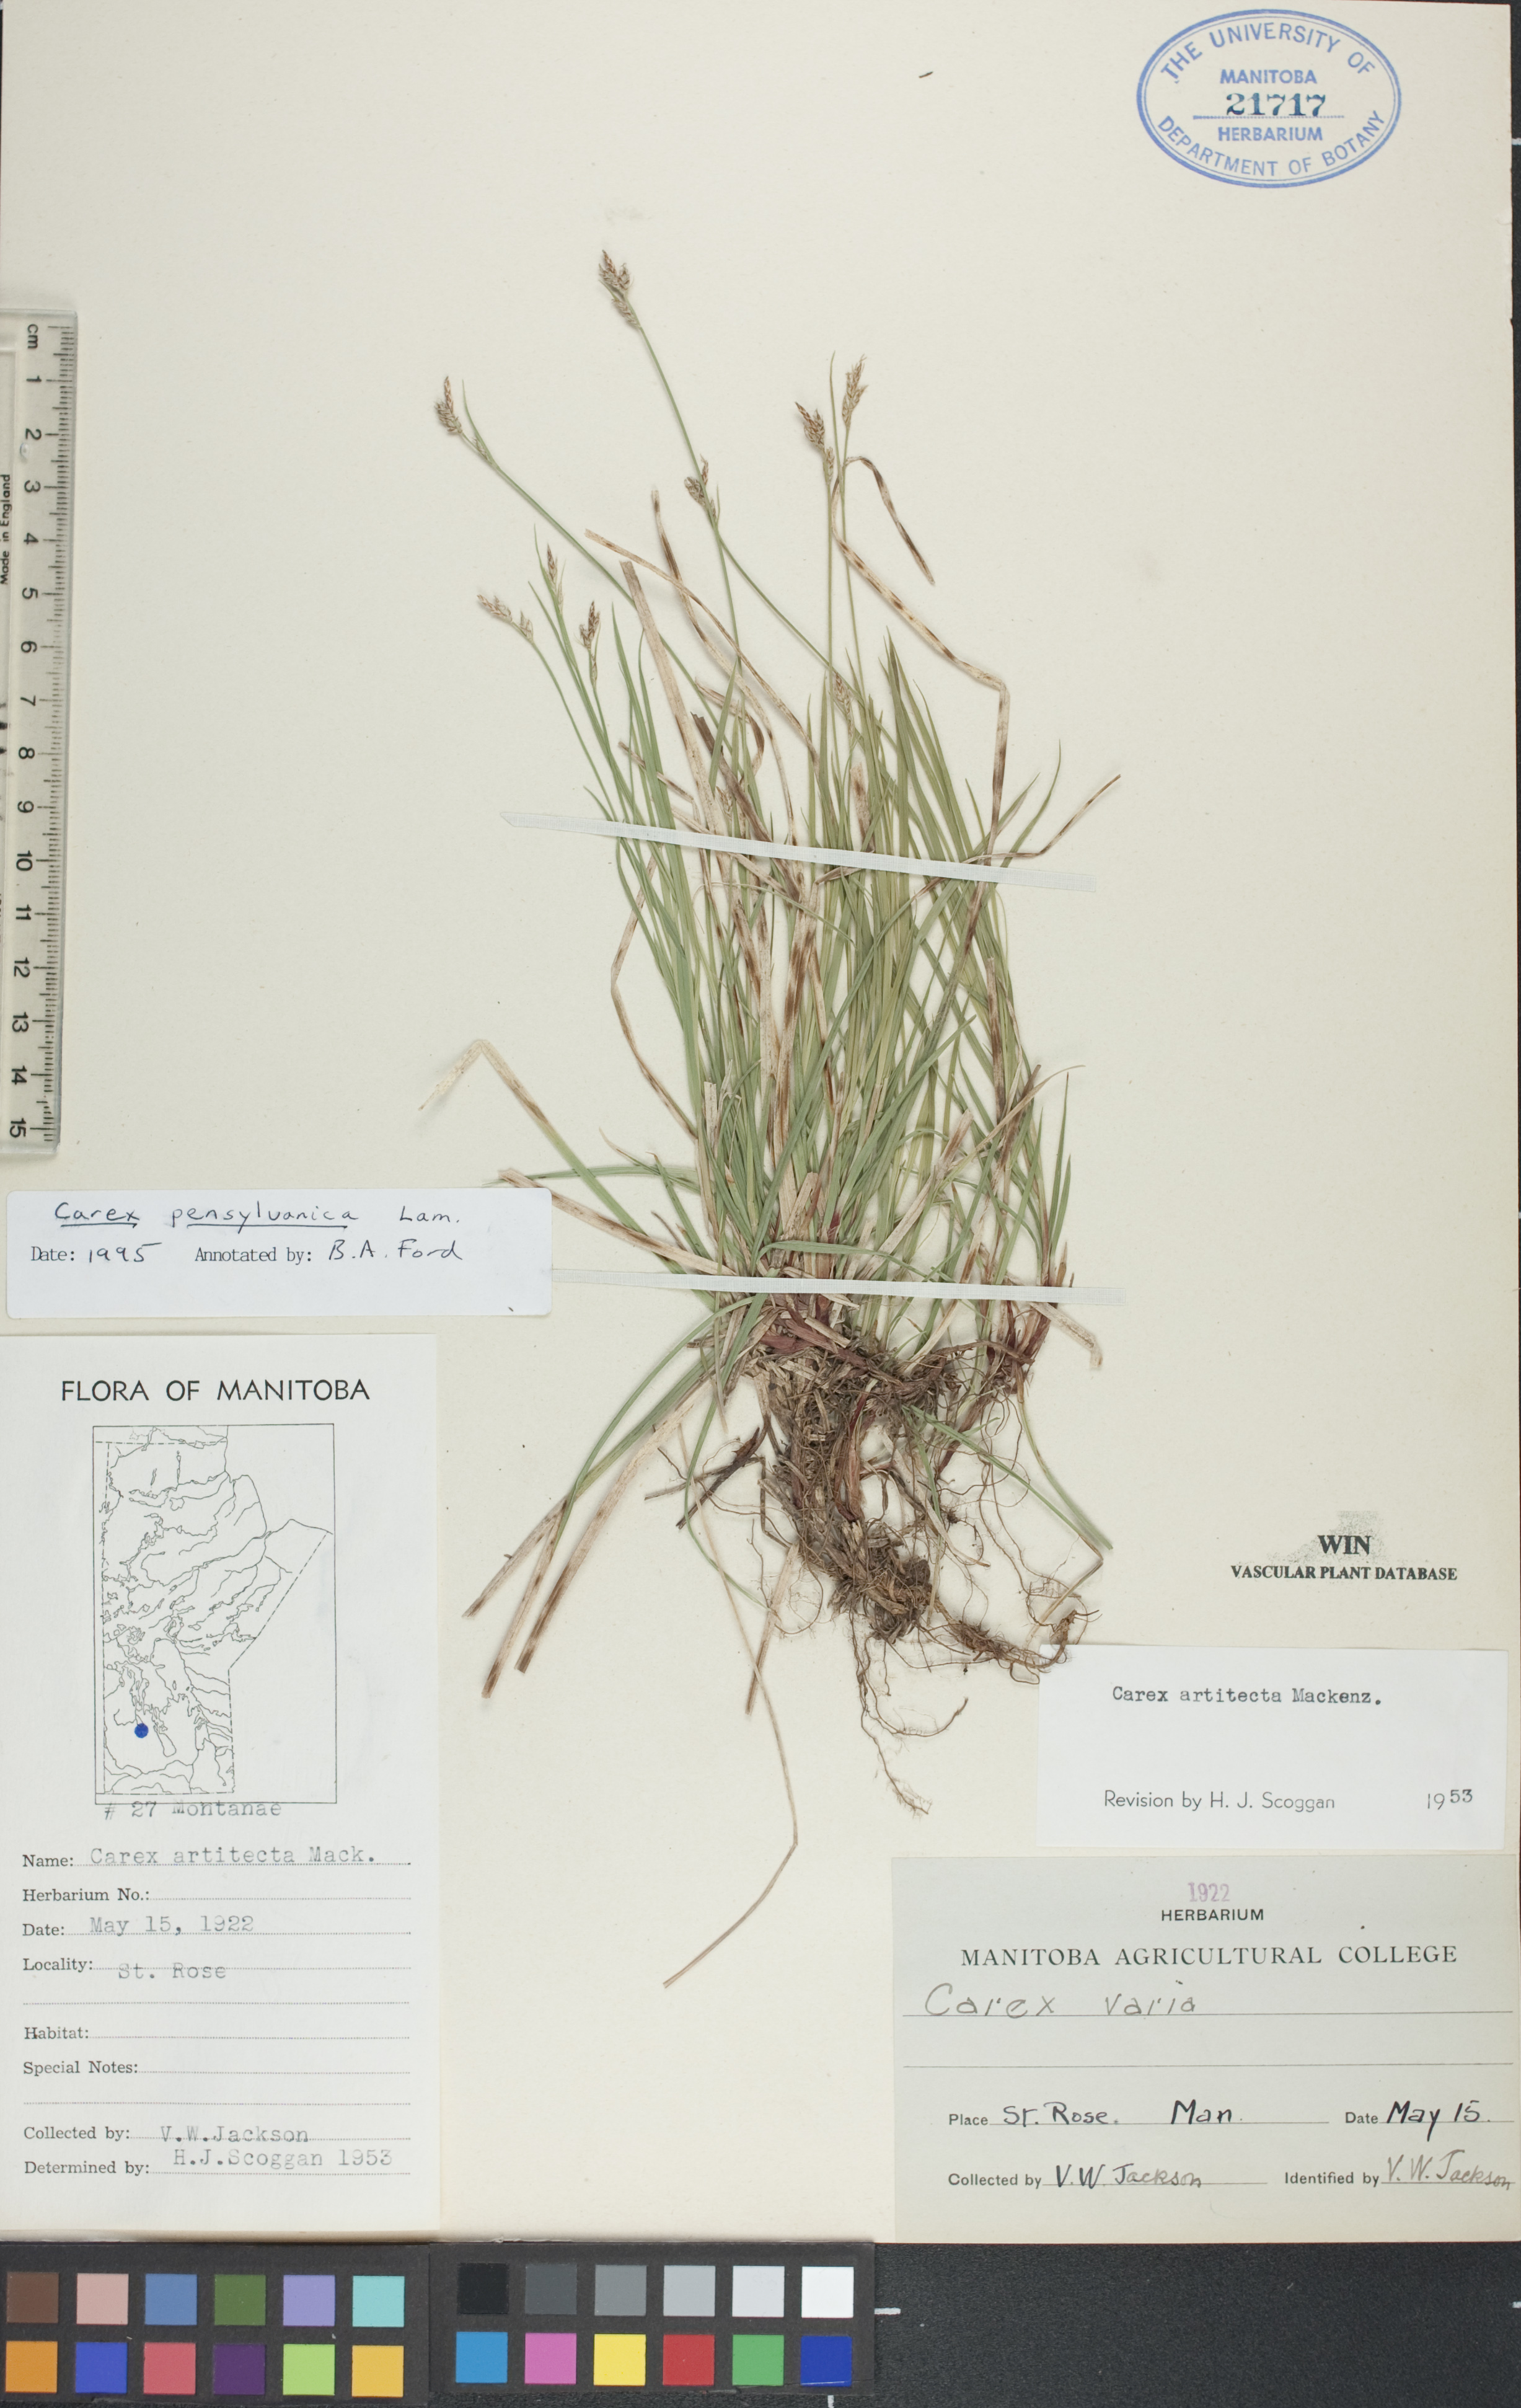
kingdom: Plantae
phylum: Tracheophyta
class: Liliopsida
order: Poales
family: Cyperaceae
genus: Carex
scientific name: Carex pensylvanica
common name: Common oak sedge
